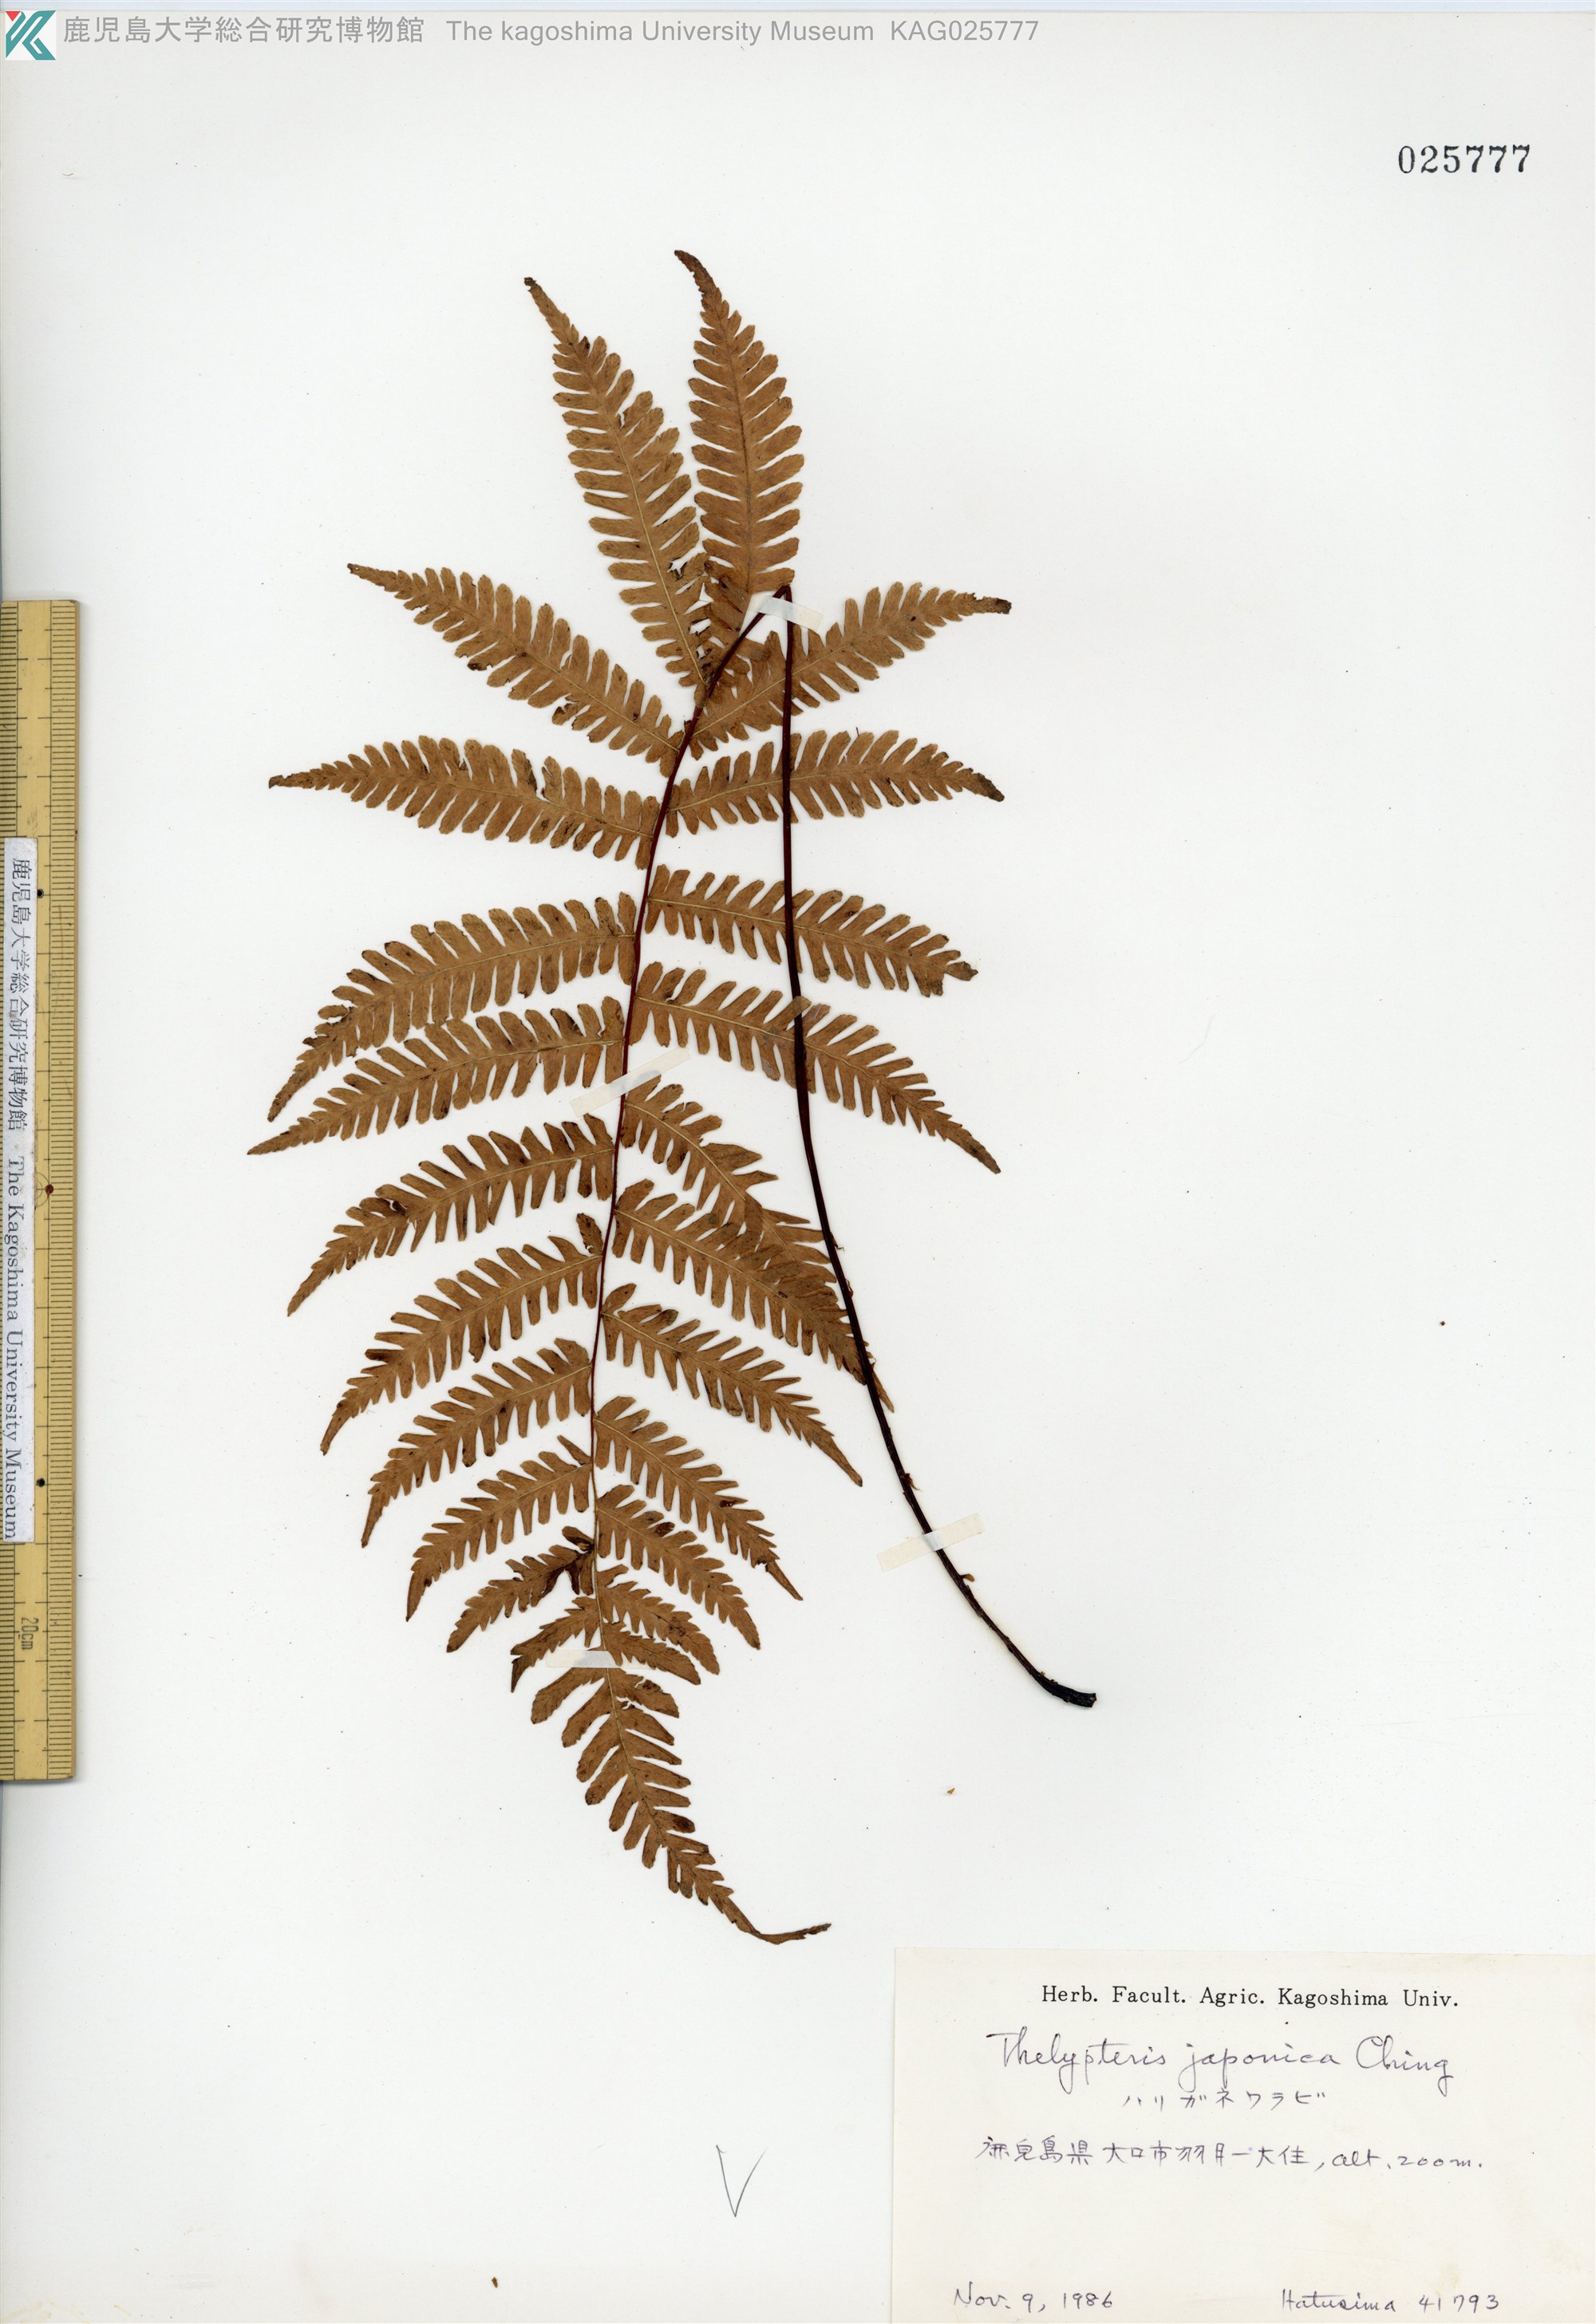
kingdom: Plantae
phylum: Tracheophyta
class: Polypodiopsida
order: Polypodiales
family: Thelypteridaceae
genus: Coryphopteris
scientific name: Coryphopteris japonica
